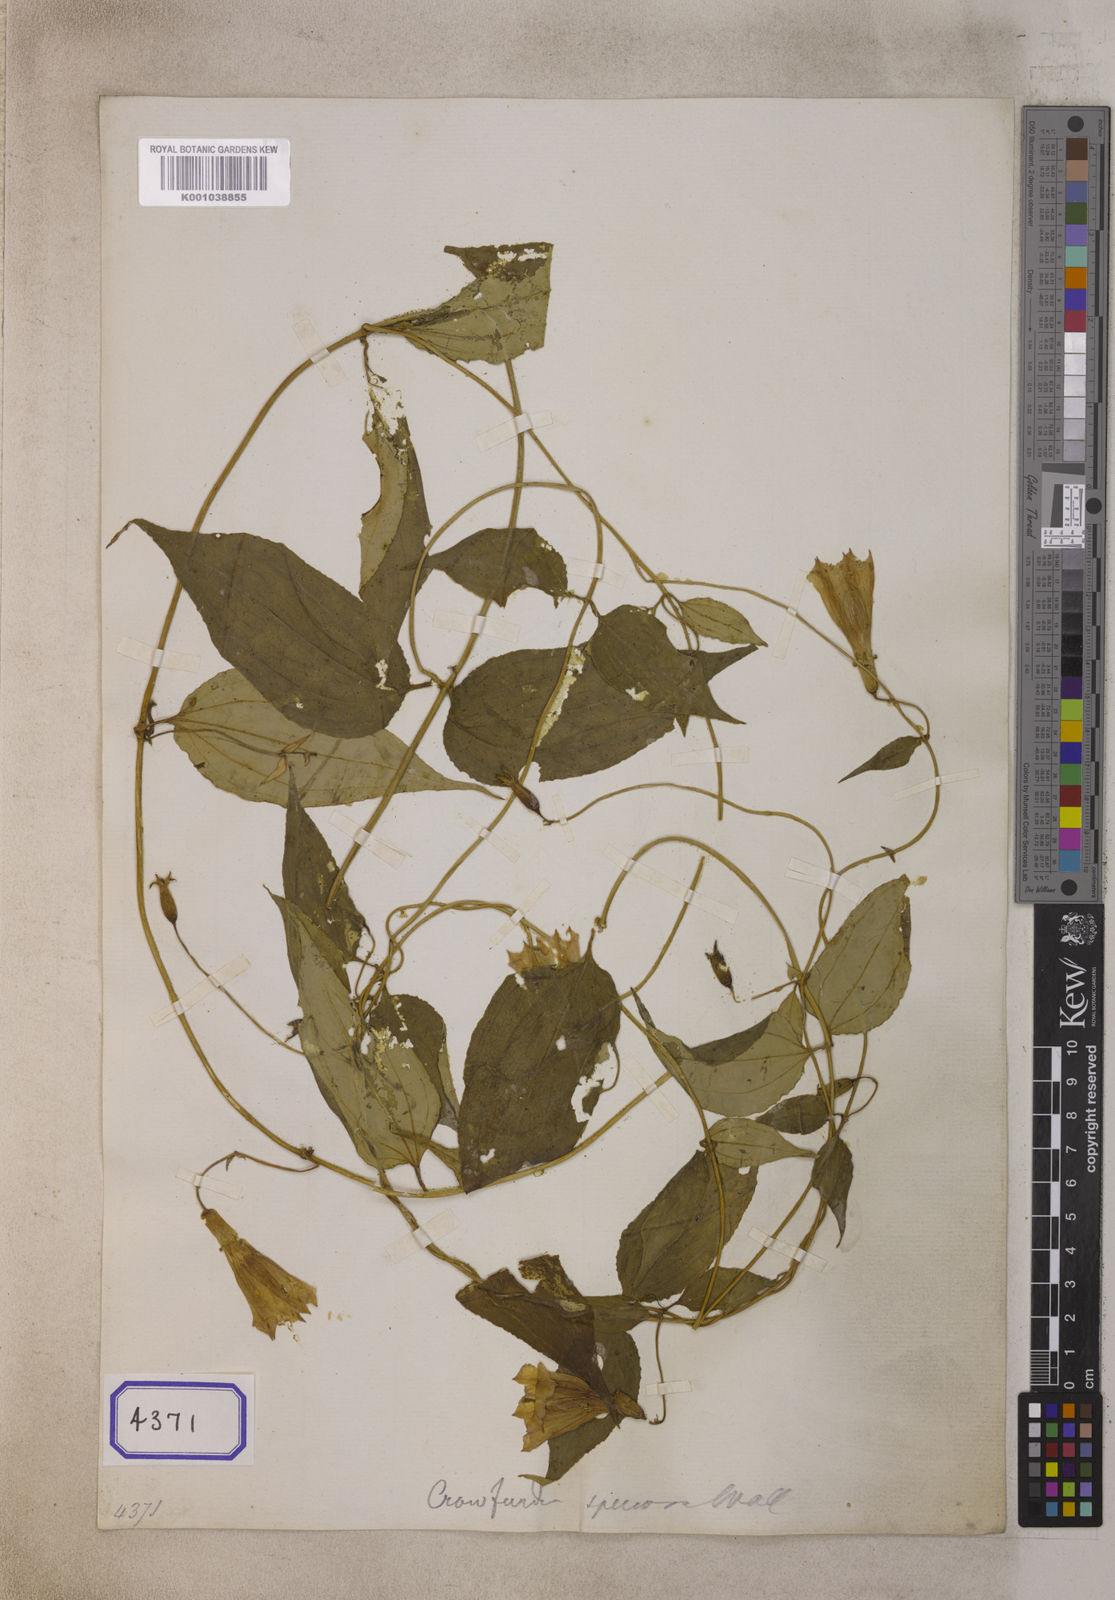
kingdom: Plantae
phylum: Tracheophyta
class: Magnoliopsida
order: Gentianales
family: Gentianaceae
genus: Crawfurdia
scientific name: Crawfurdia speciosa
